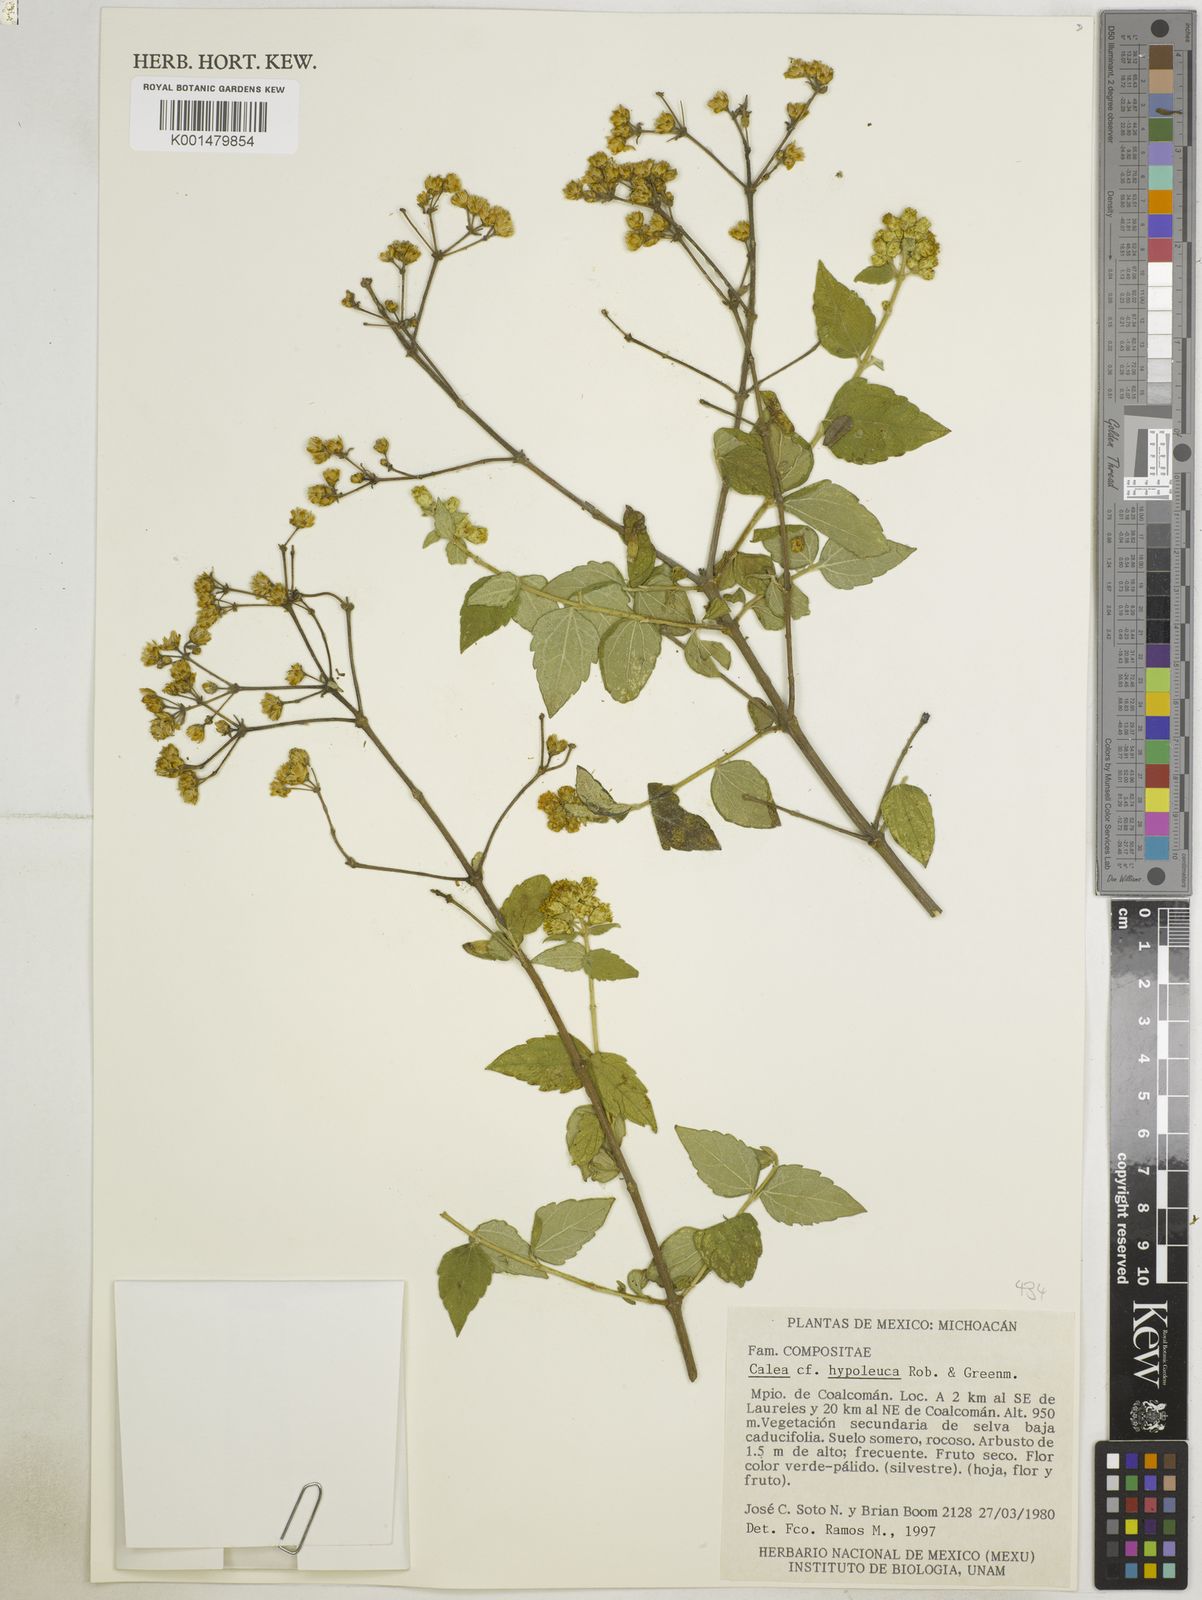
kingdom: Plantae
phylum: Tracheophyta
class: Magnoliopsida
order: Asterales
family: Asteraceae
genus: Calea
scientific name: Calea ternifolia
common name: Mexican calea
